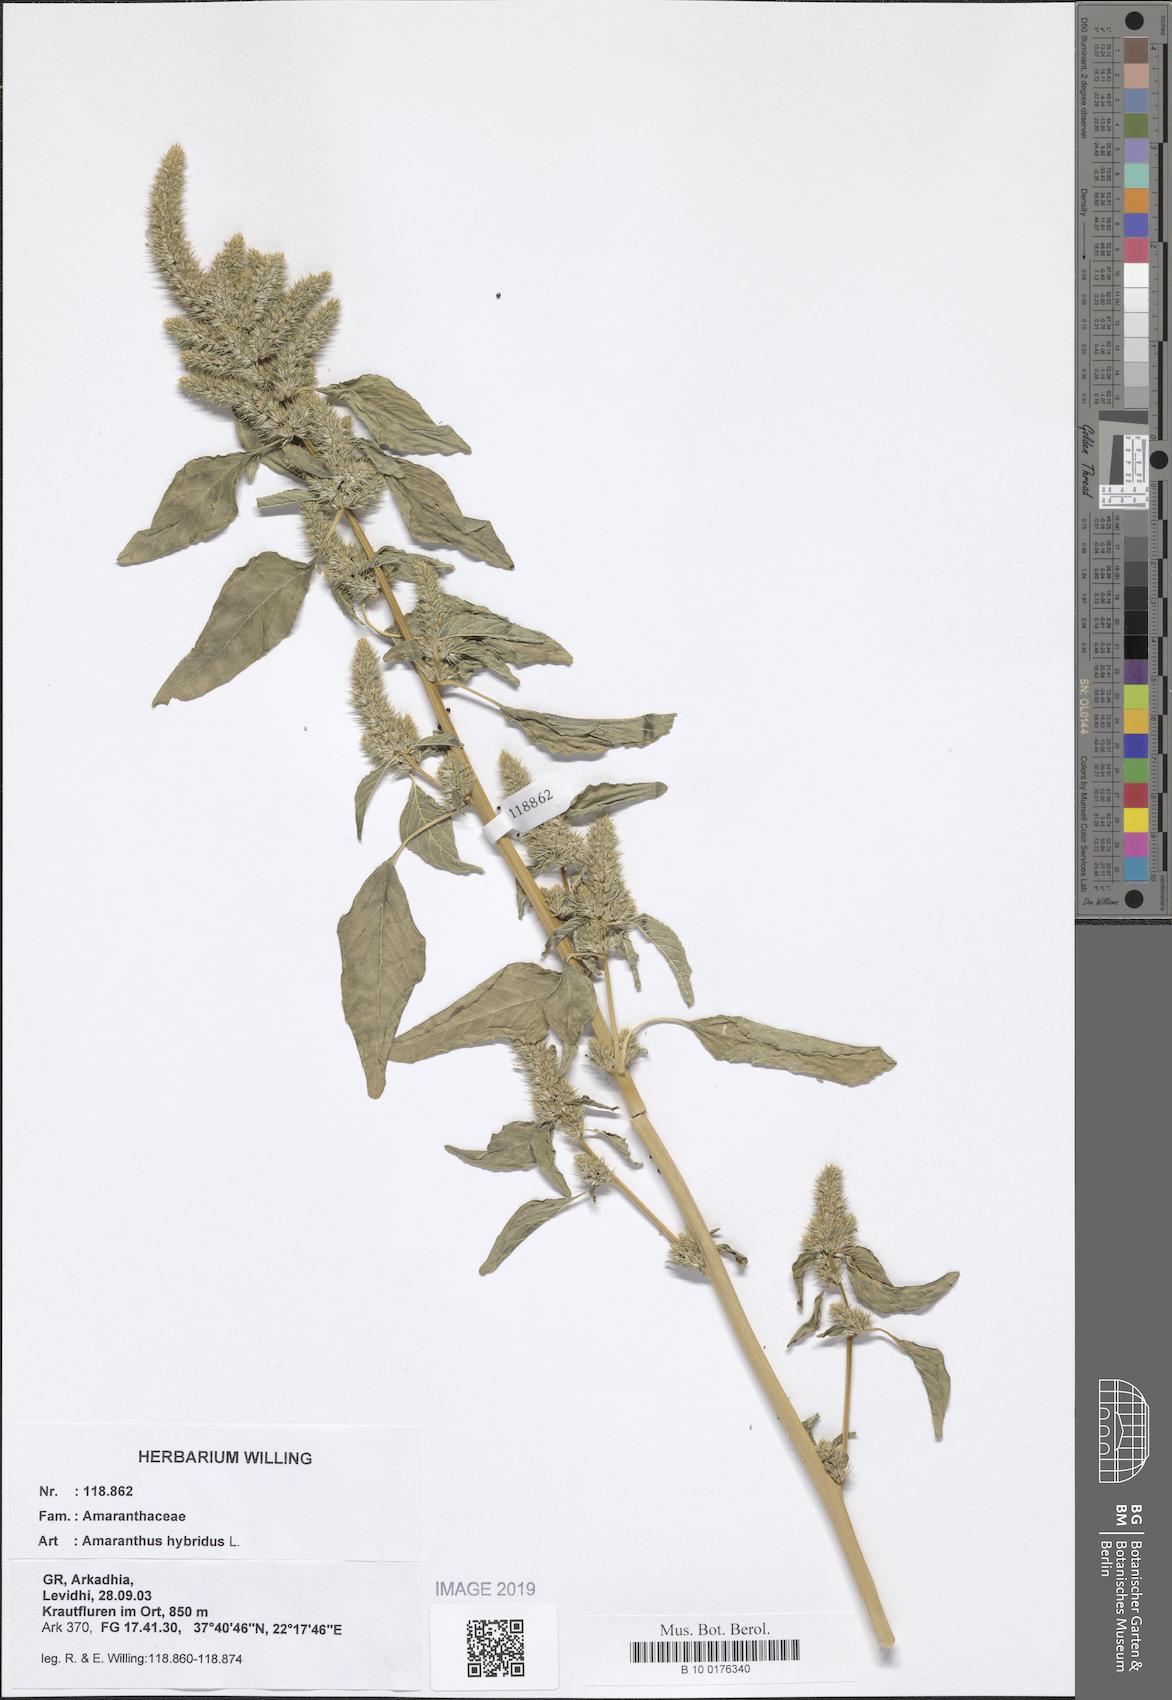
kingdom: Plantae
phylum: Tracheophyta
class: Magnoliopsida
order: Caryophyllales
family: Amaranthaceae
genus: Amaranthus
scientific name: Amaranthus hybridus
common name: Green amaranth
